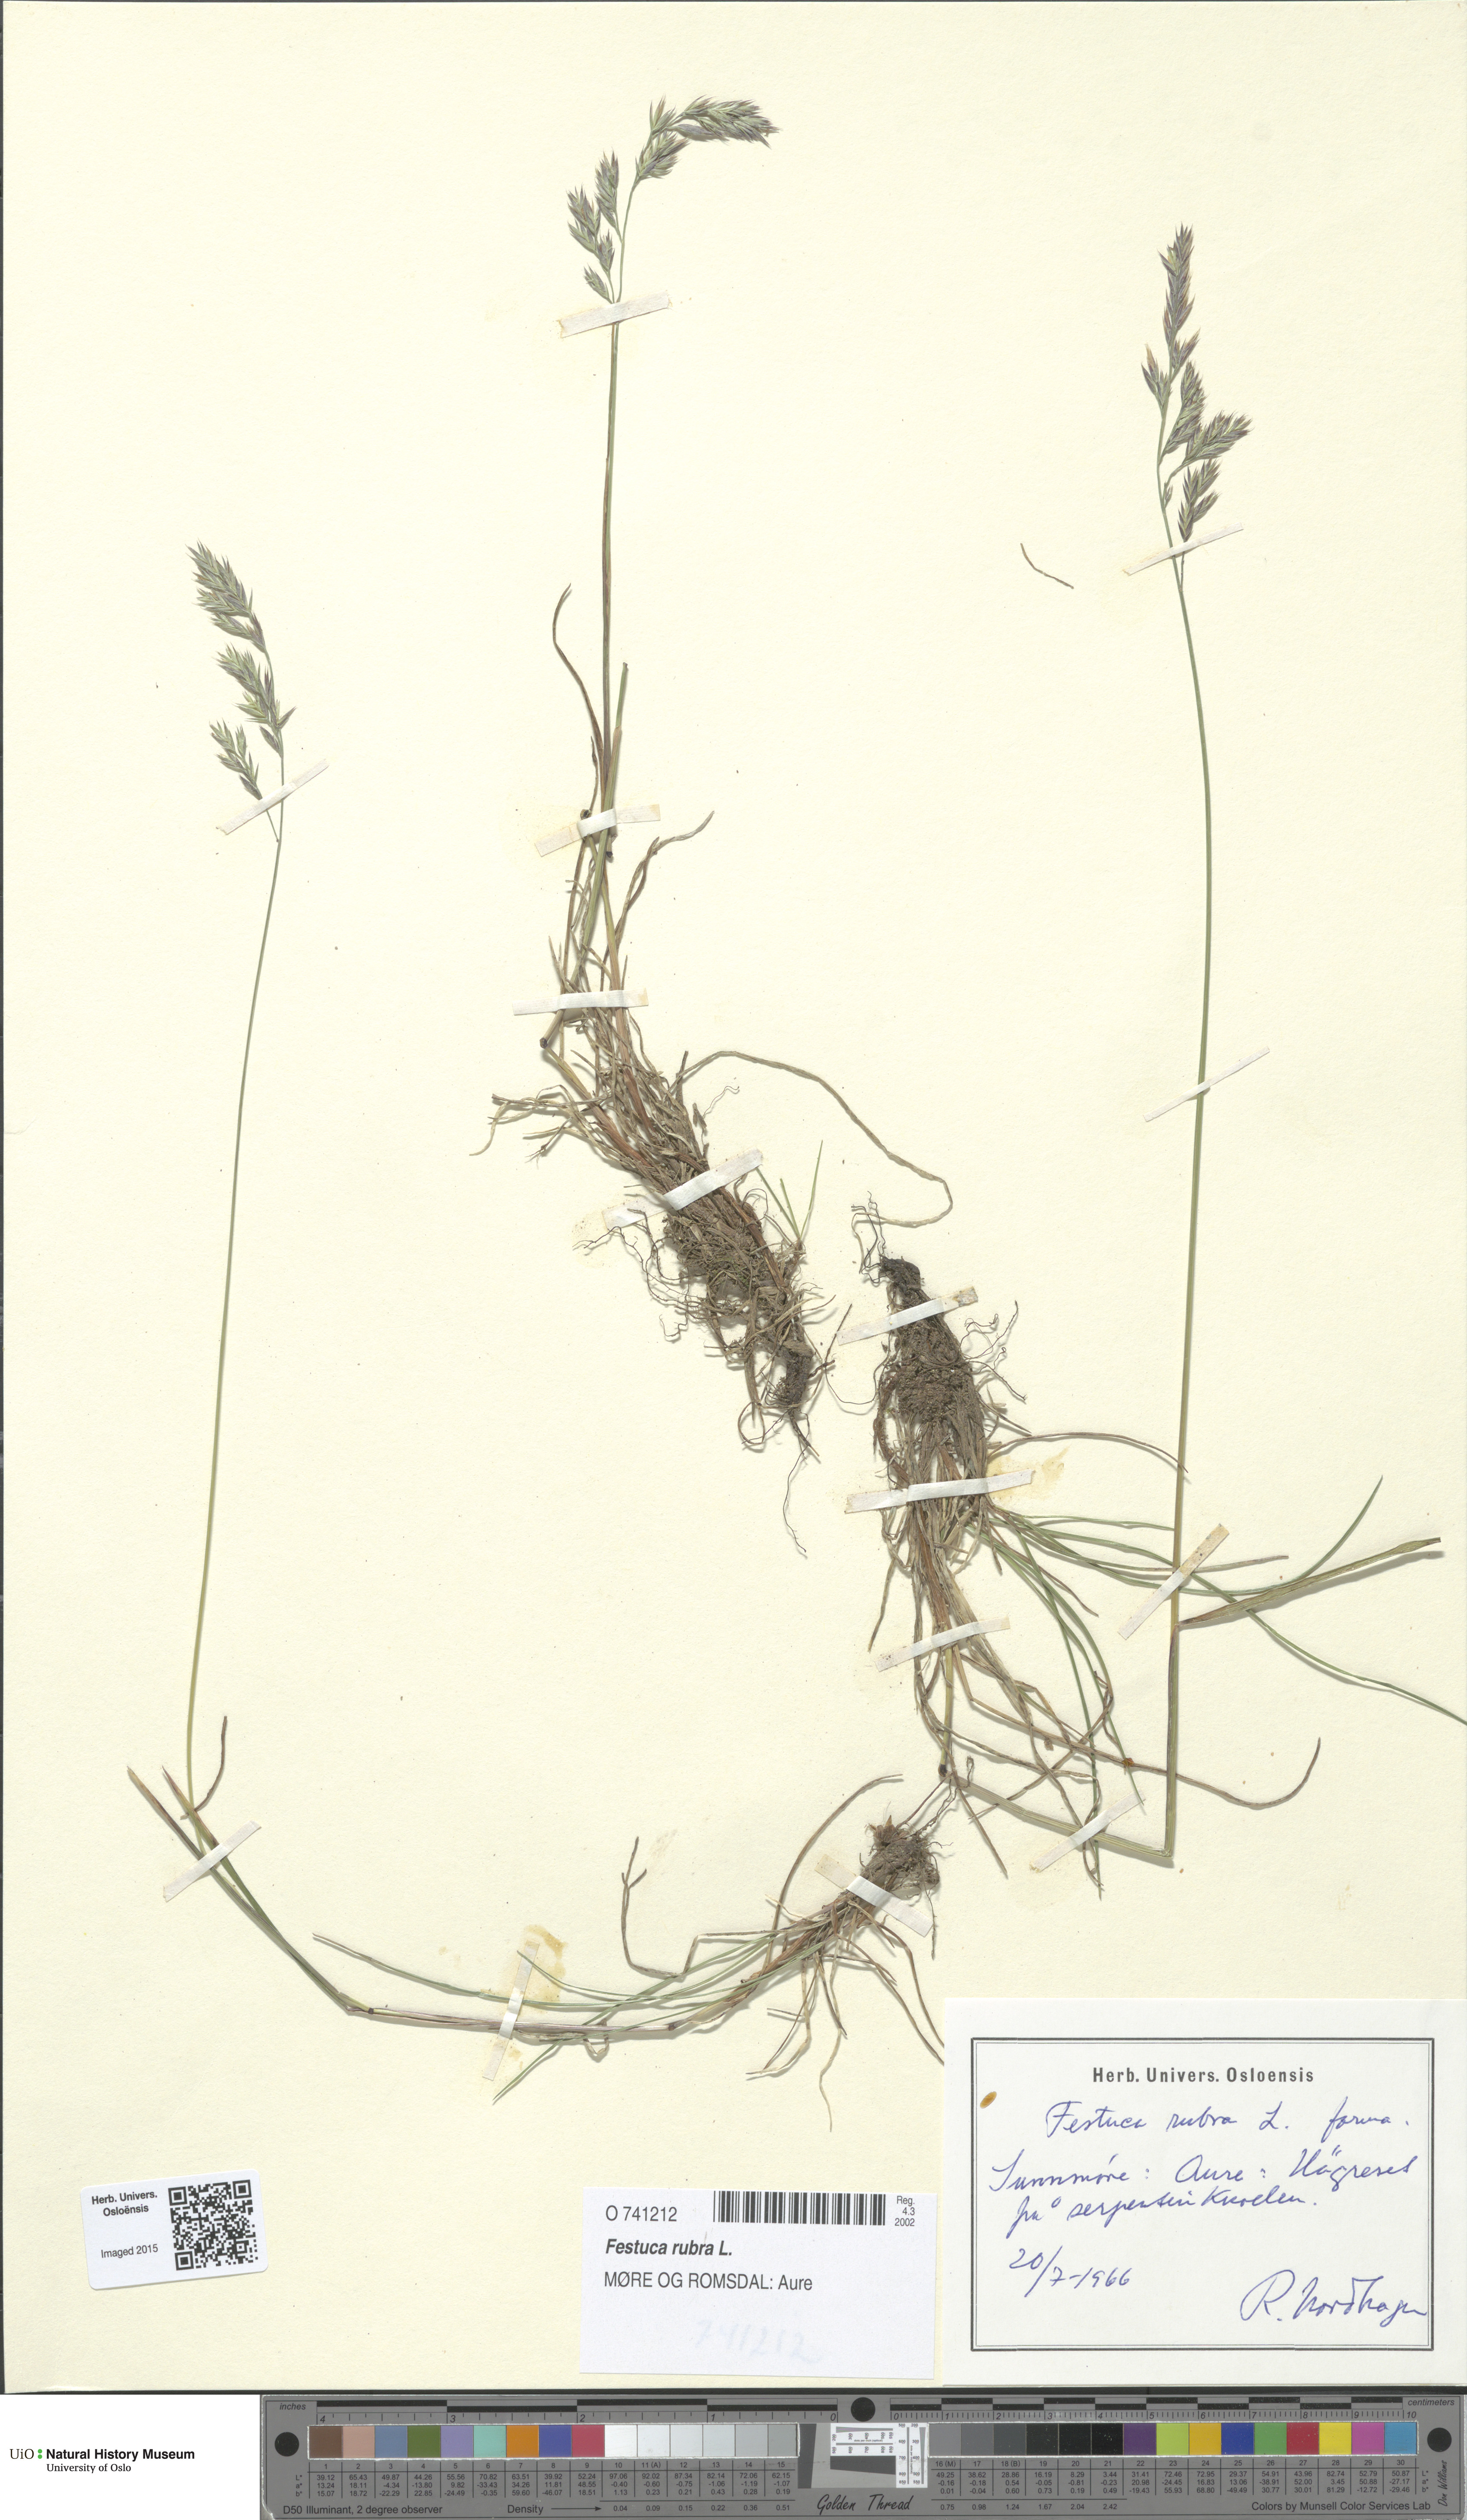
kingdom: Plantae
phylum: Tracheophyta
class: Liliopsida
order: Poales
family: Poaceae
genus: Festuca
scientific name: Festuca rubra
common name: Red fescue
